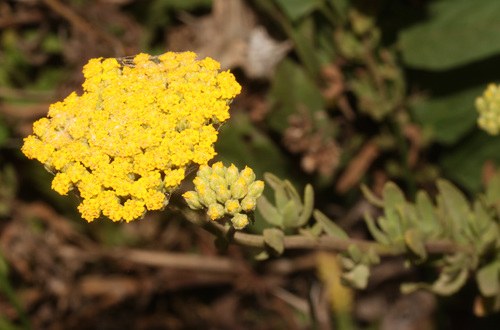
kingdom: Plantae
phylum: Tracheophyta
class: Magnoliopsida
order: Asterales
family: Asteraceae
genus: Achillea
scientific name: Achillea ageratum
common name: Sweet-nancy
